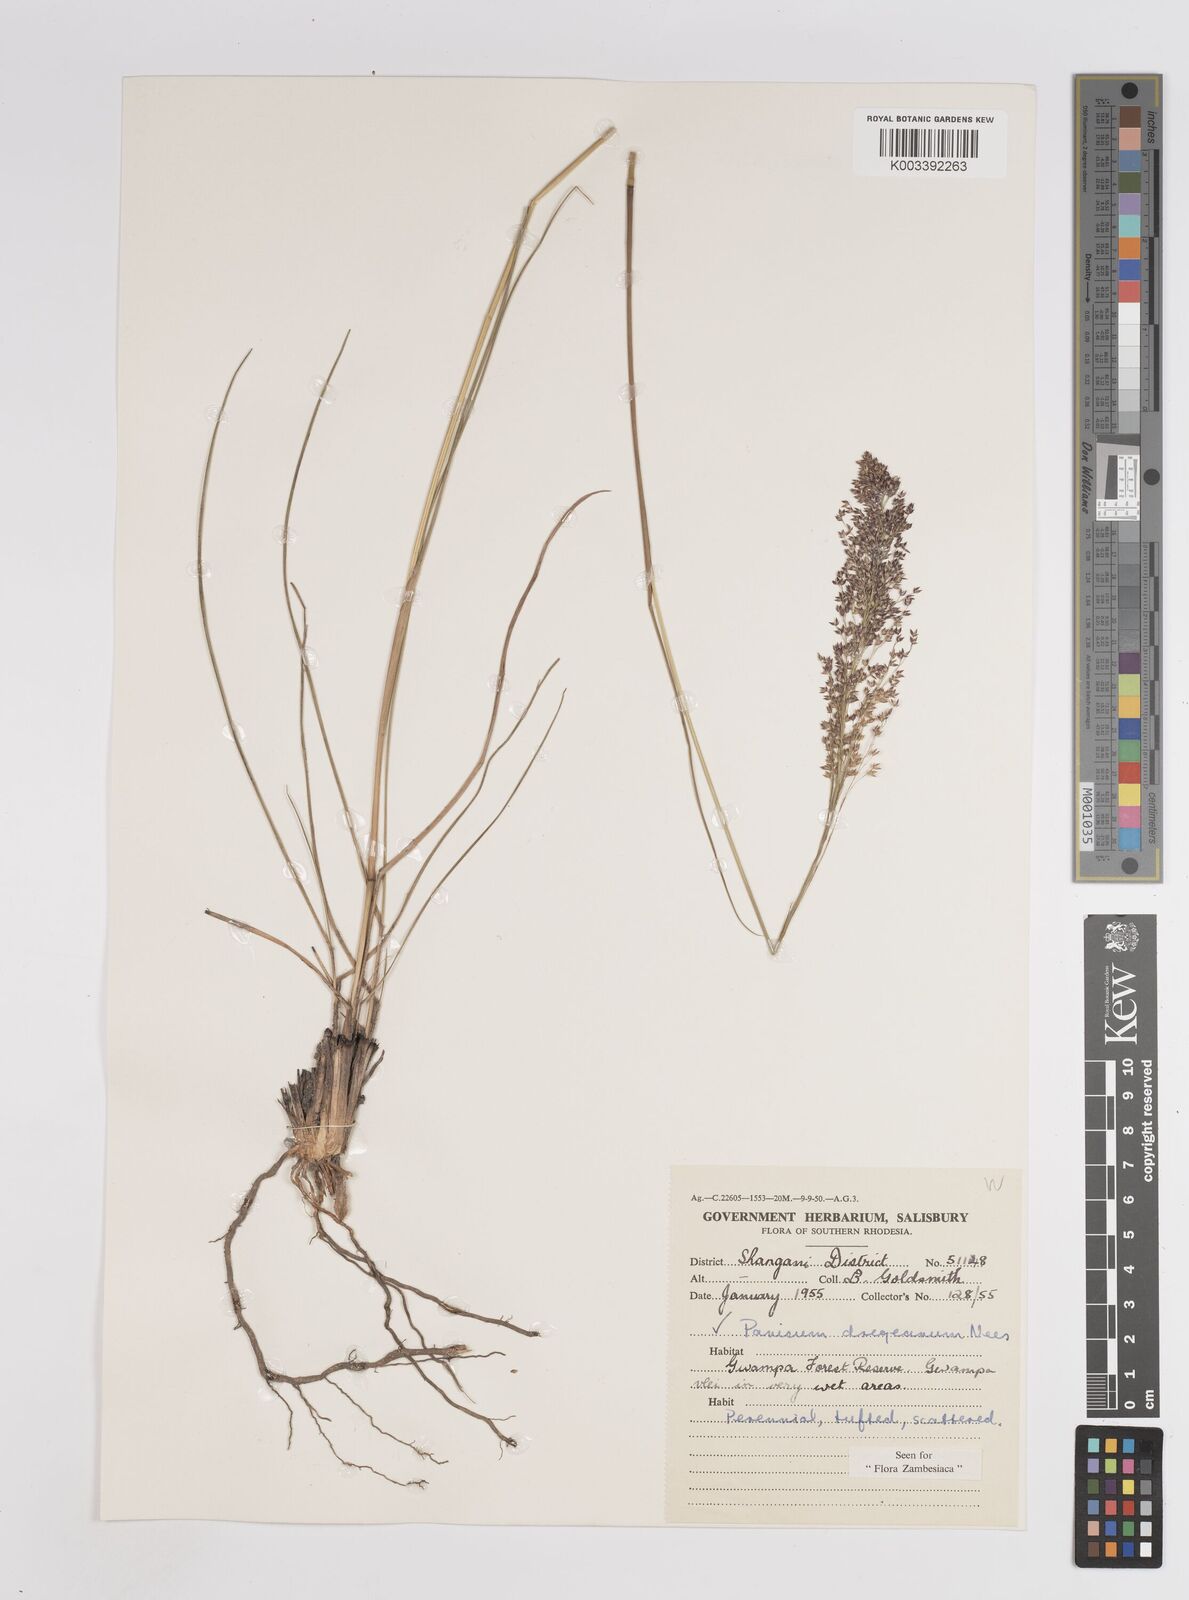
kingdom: Plantae
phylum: Tracheophyta
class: Liliopsida
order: Poales
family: Poaceae
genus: Panicum
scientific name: Panicum dregeanum
